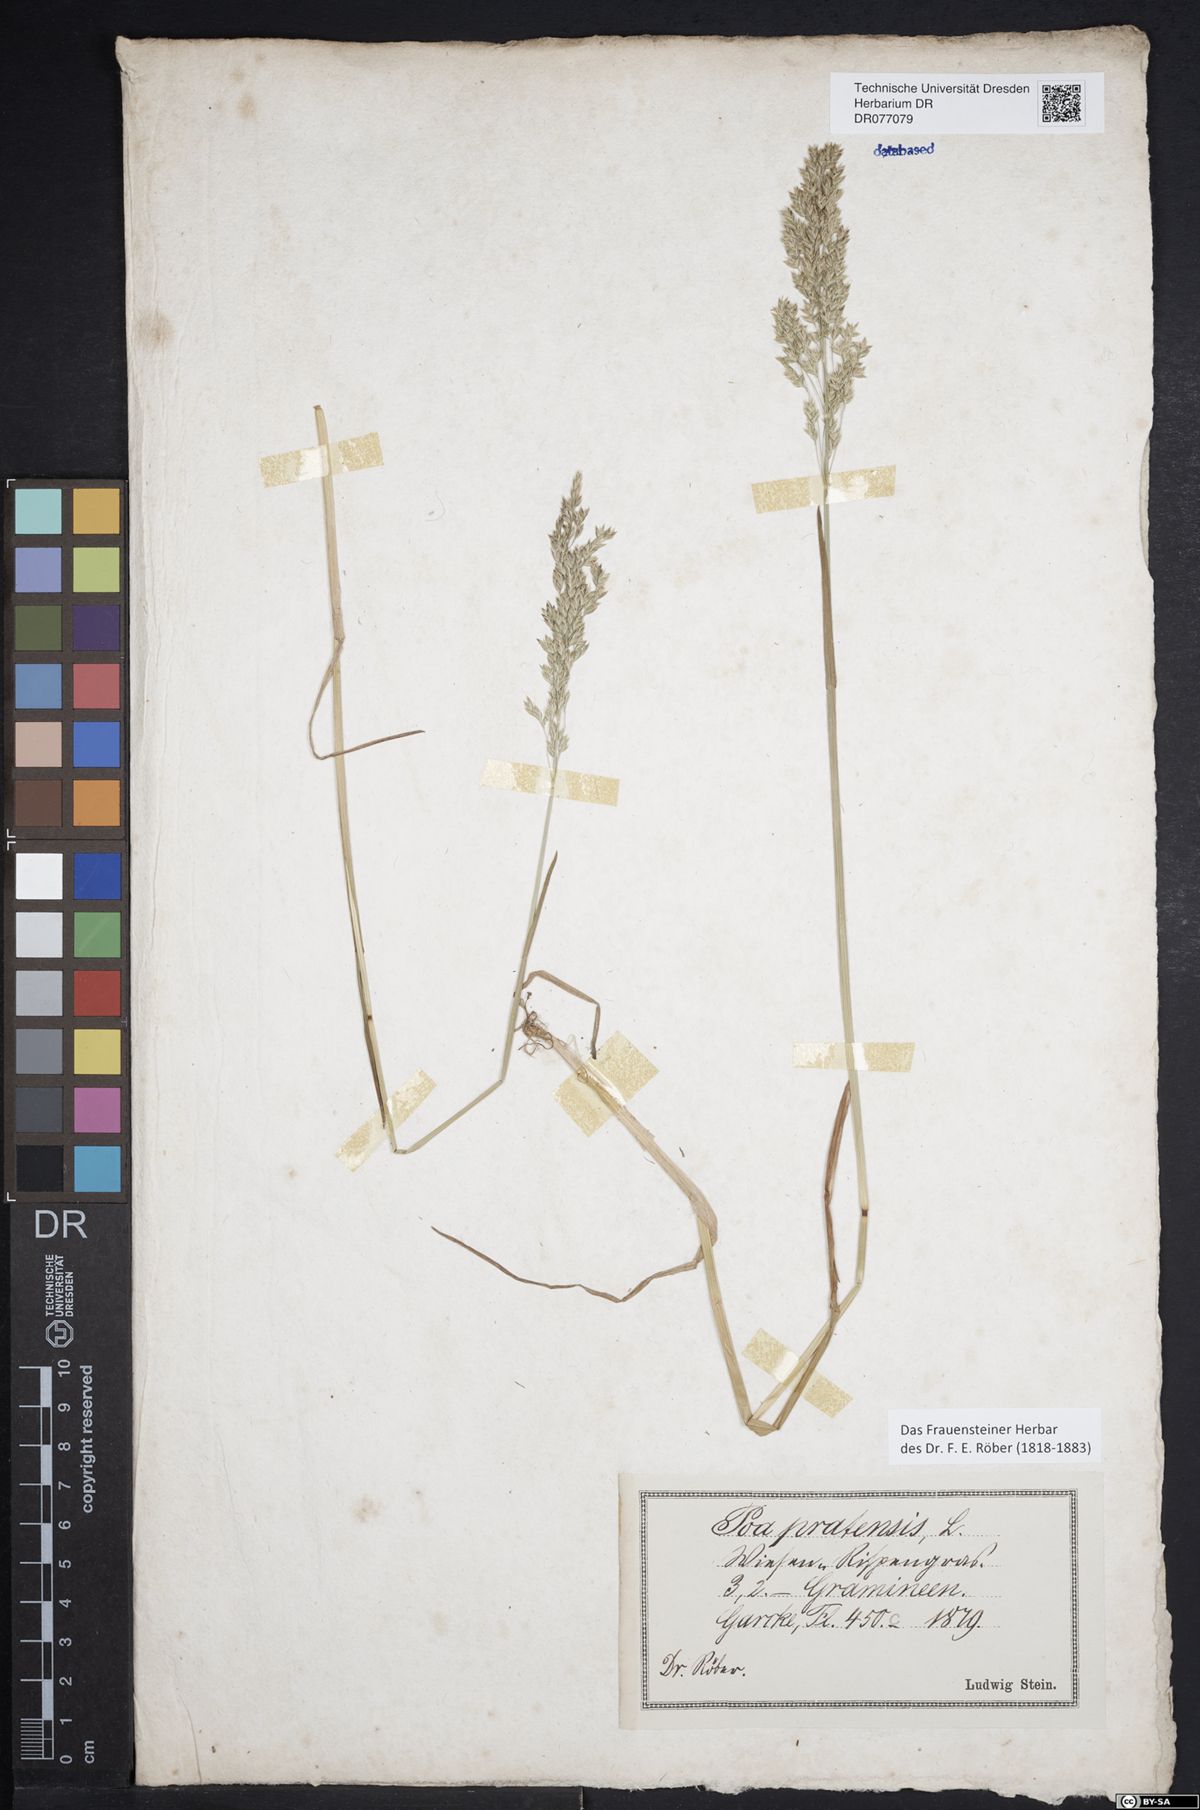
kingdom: Plantae
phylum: Tracheophyta
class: Liliopsida
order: Poales
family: Poaceae
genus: Poa
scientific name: Poa pratensis
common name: Kentucky bluegrass
